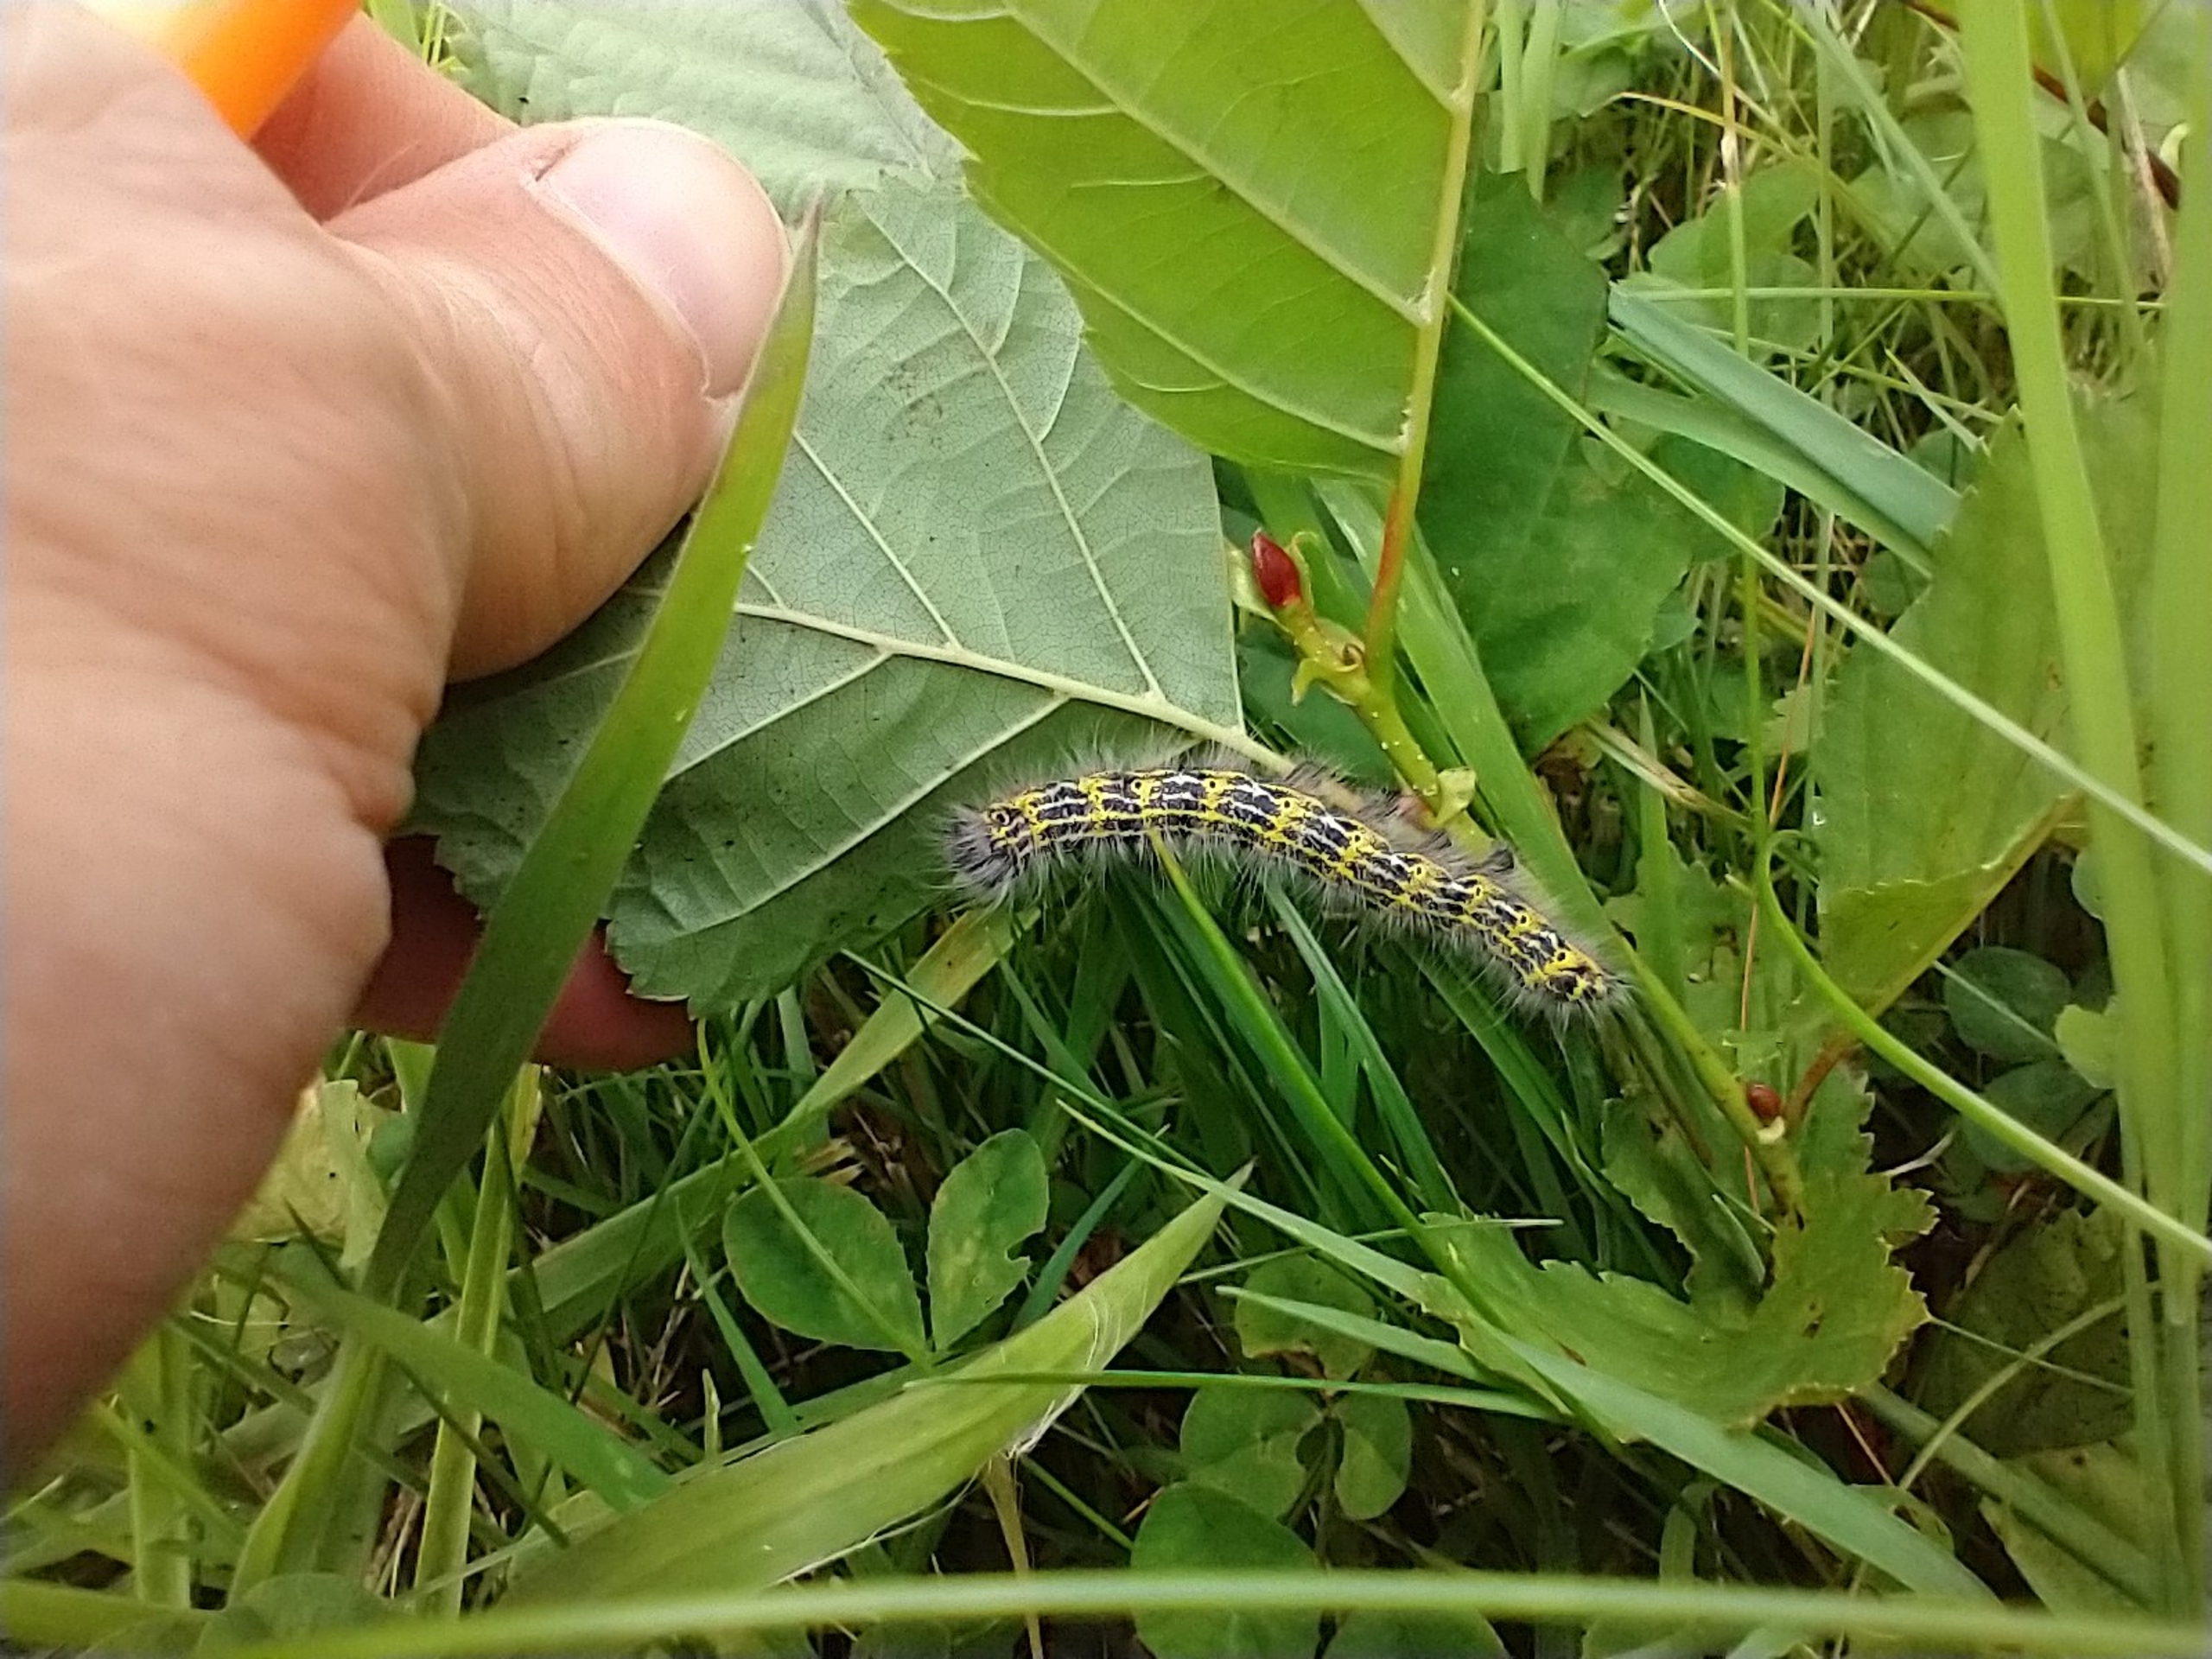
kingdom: Animalia
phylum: Arthropoda
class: Insecta
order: Lepidoptera
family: Notodontidae
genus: Phalera
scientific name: Phalera bucephala
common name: Måneplet
